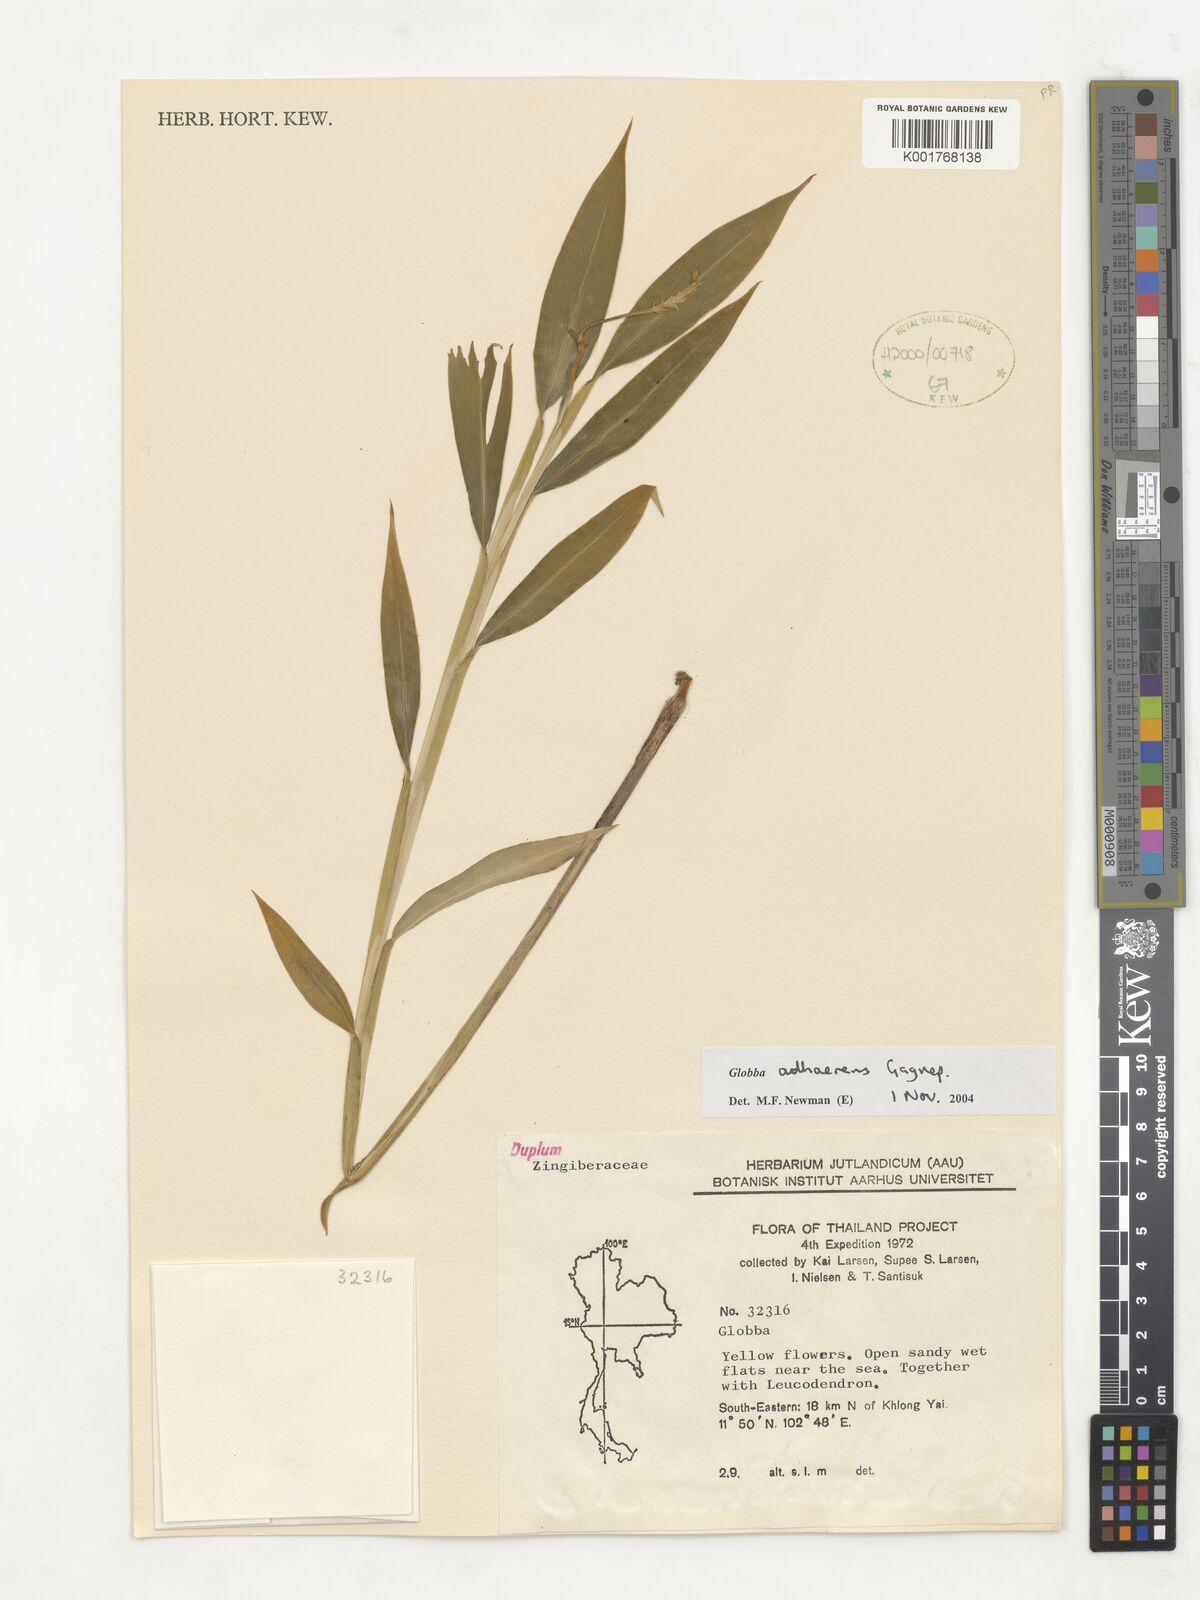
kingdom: Plantae
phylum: Tracheophyta
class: Liliopsida
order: Zingiberales
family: Zingiberaceae
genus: Globba
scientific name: Globba adhaerens
